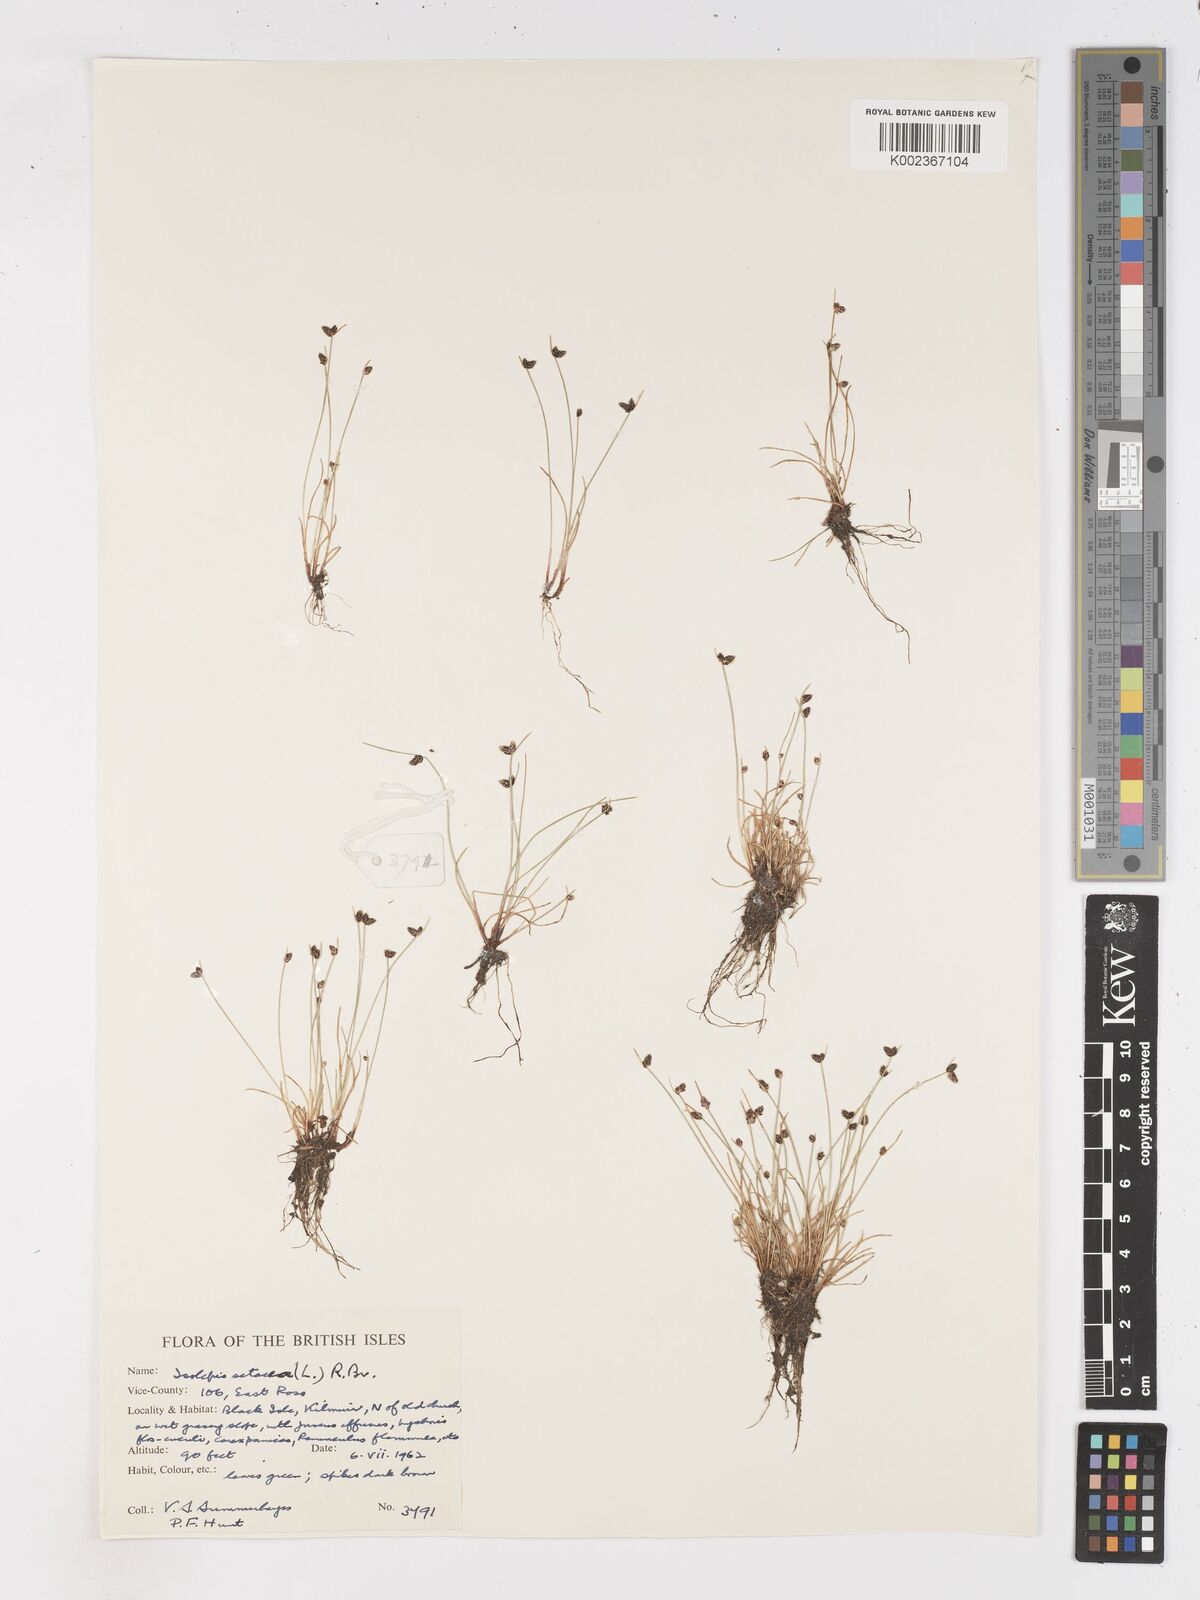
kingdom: Plantae
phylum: Tracheophyta
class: Liliopsida
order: Poales
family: Cyperaceae
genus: Isolepis
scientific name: Isolepis setacea
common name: Bristle club-rush
